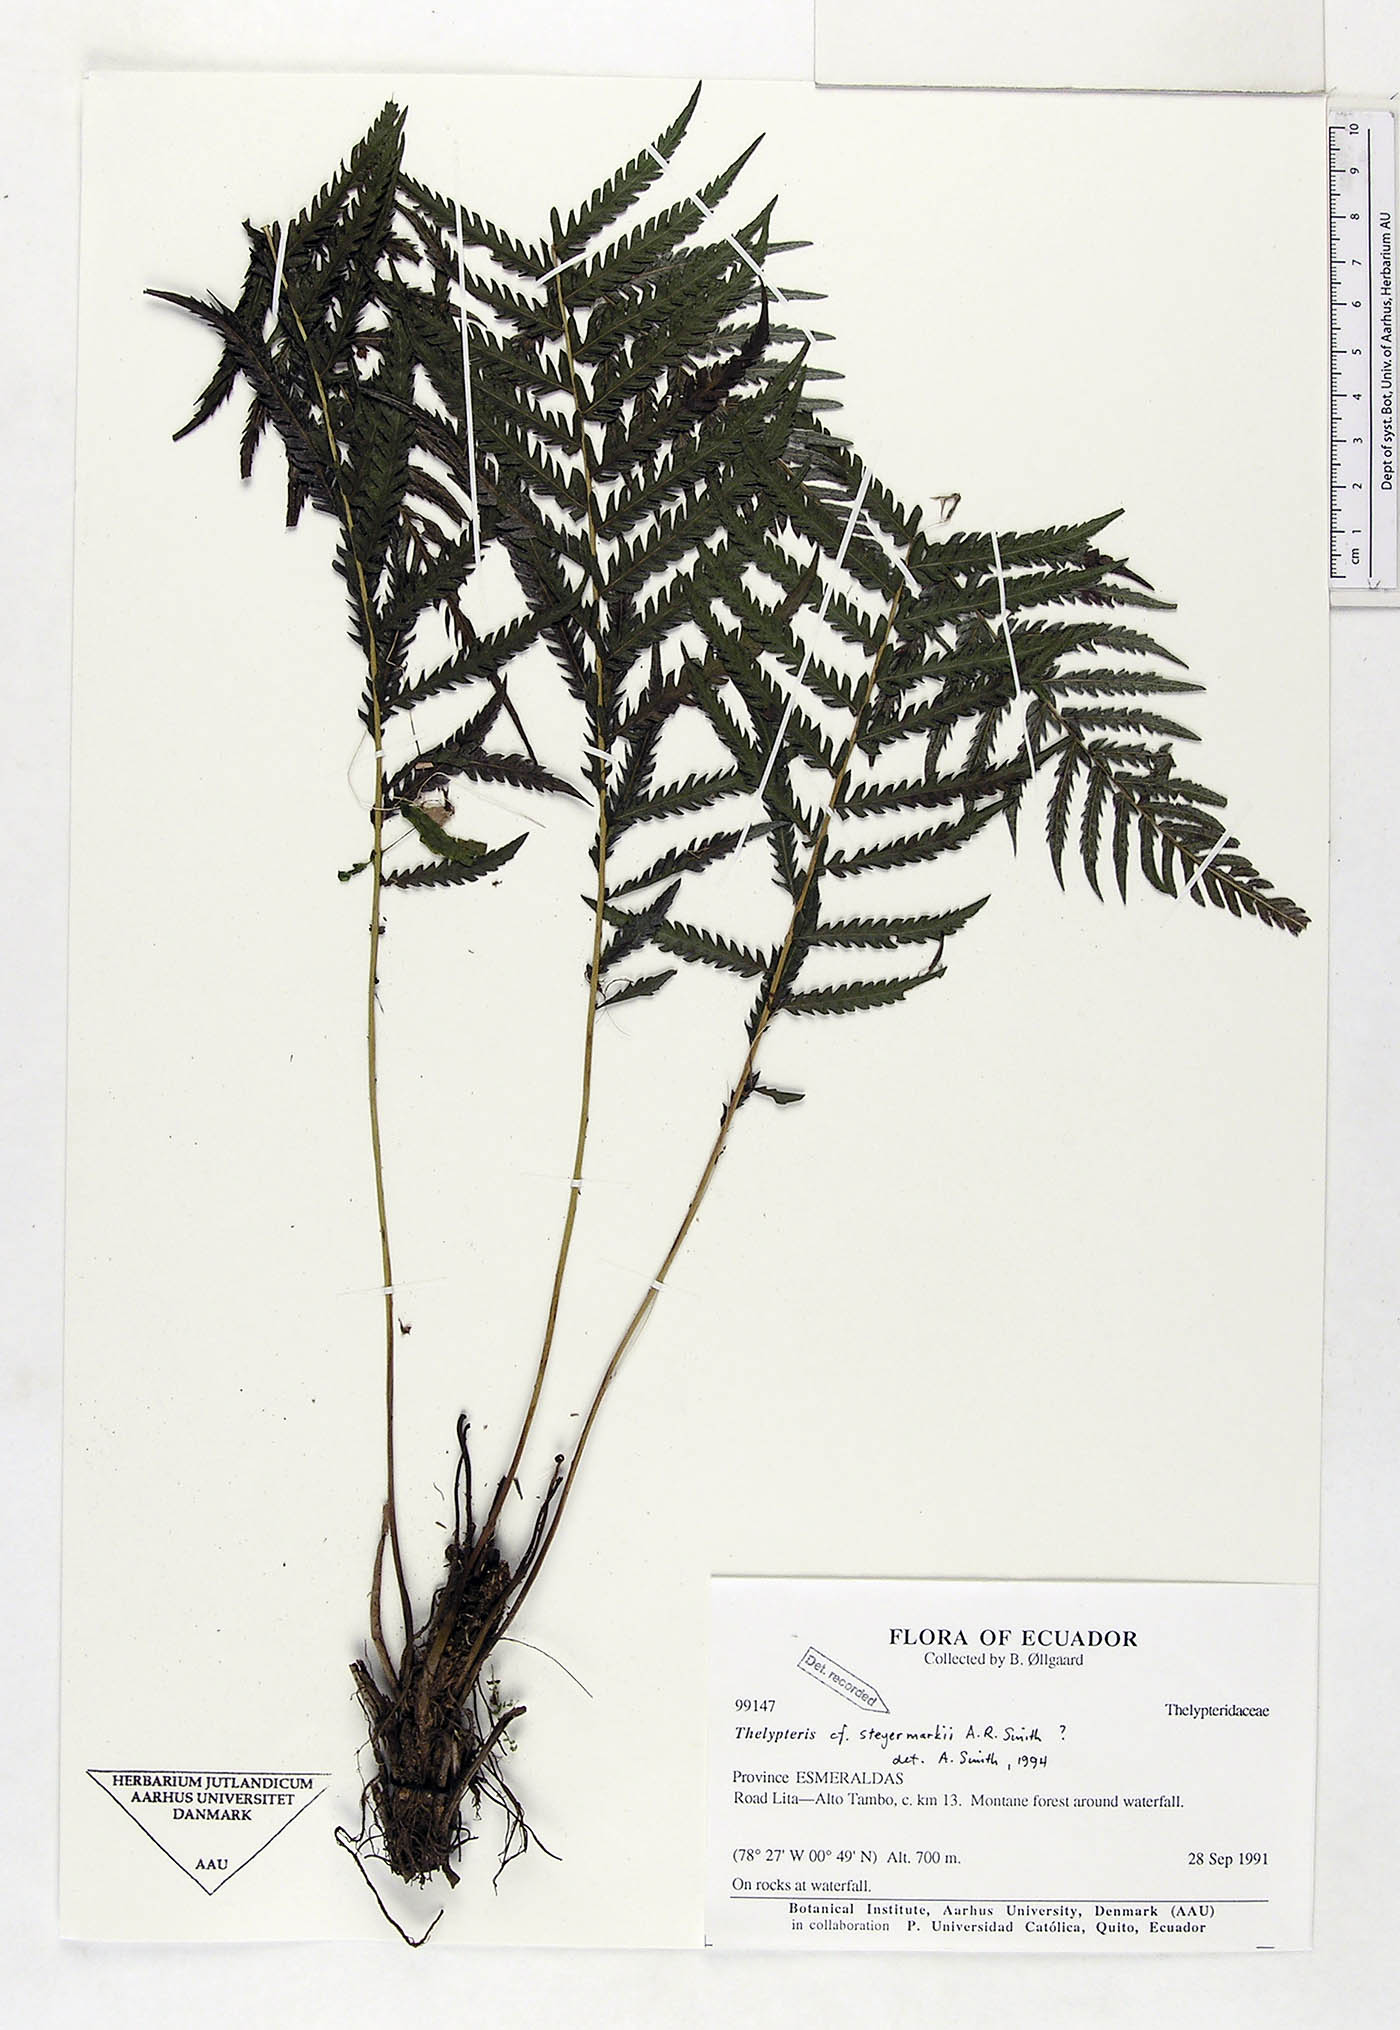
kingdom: Plantae
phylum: Tracheophyta
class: Polypodiopsida
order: Polypodiales
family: Thelypteridaceae
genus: Amauropelta
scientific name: Amauropelta steyermarkii
